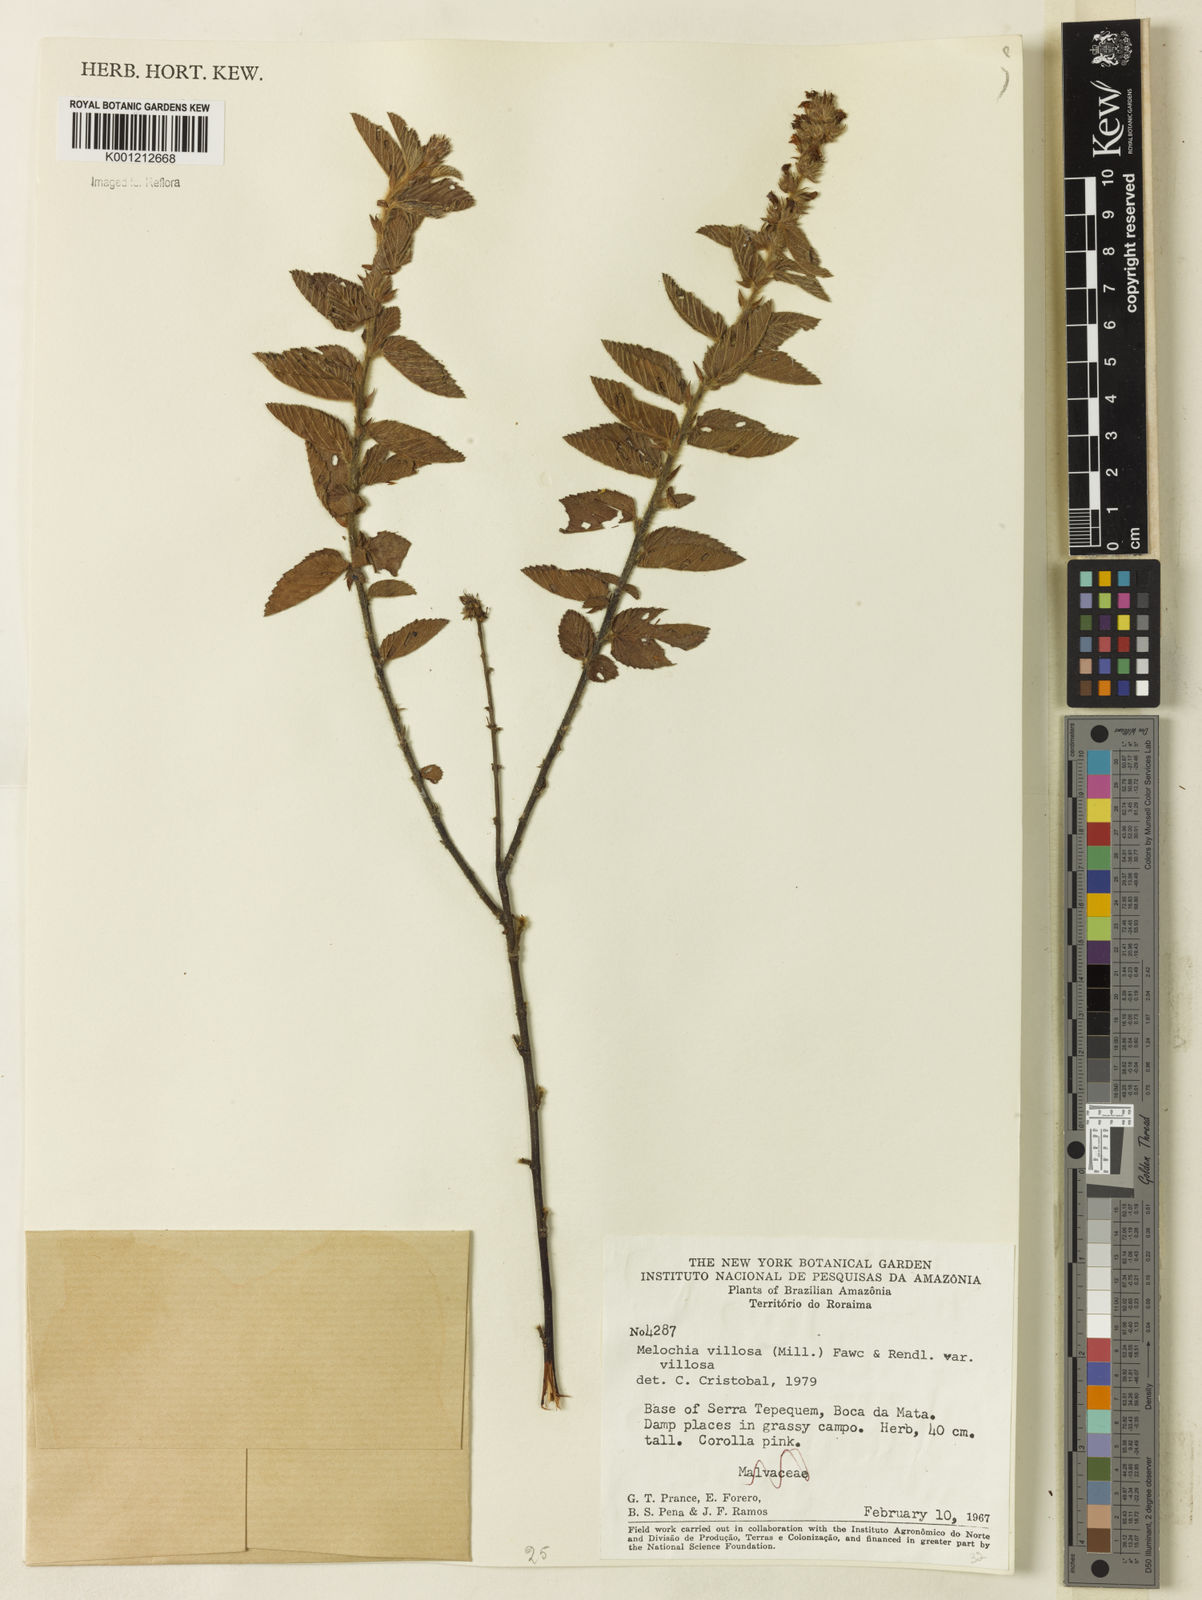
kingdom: Plantae
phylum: Tracheophyta
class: Magnoliopsida
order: Malvales
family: Malvaceae
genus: Melochia
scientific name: Melochia spicata
